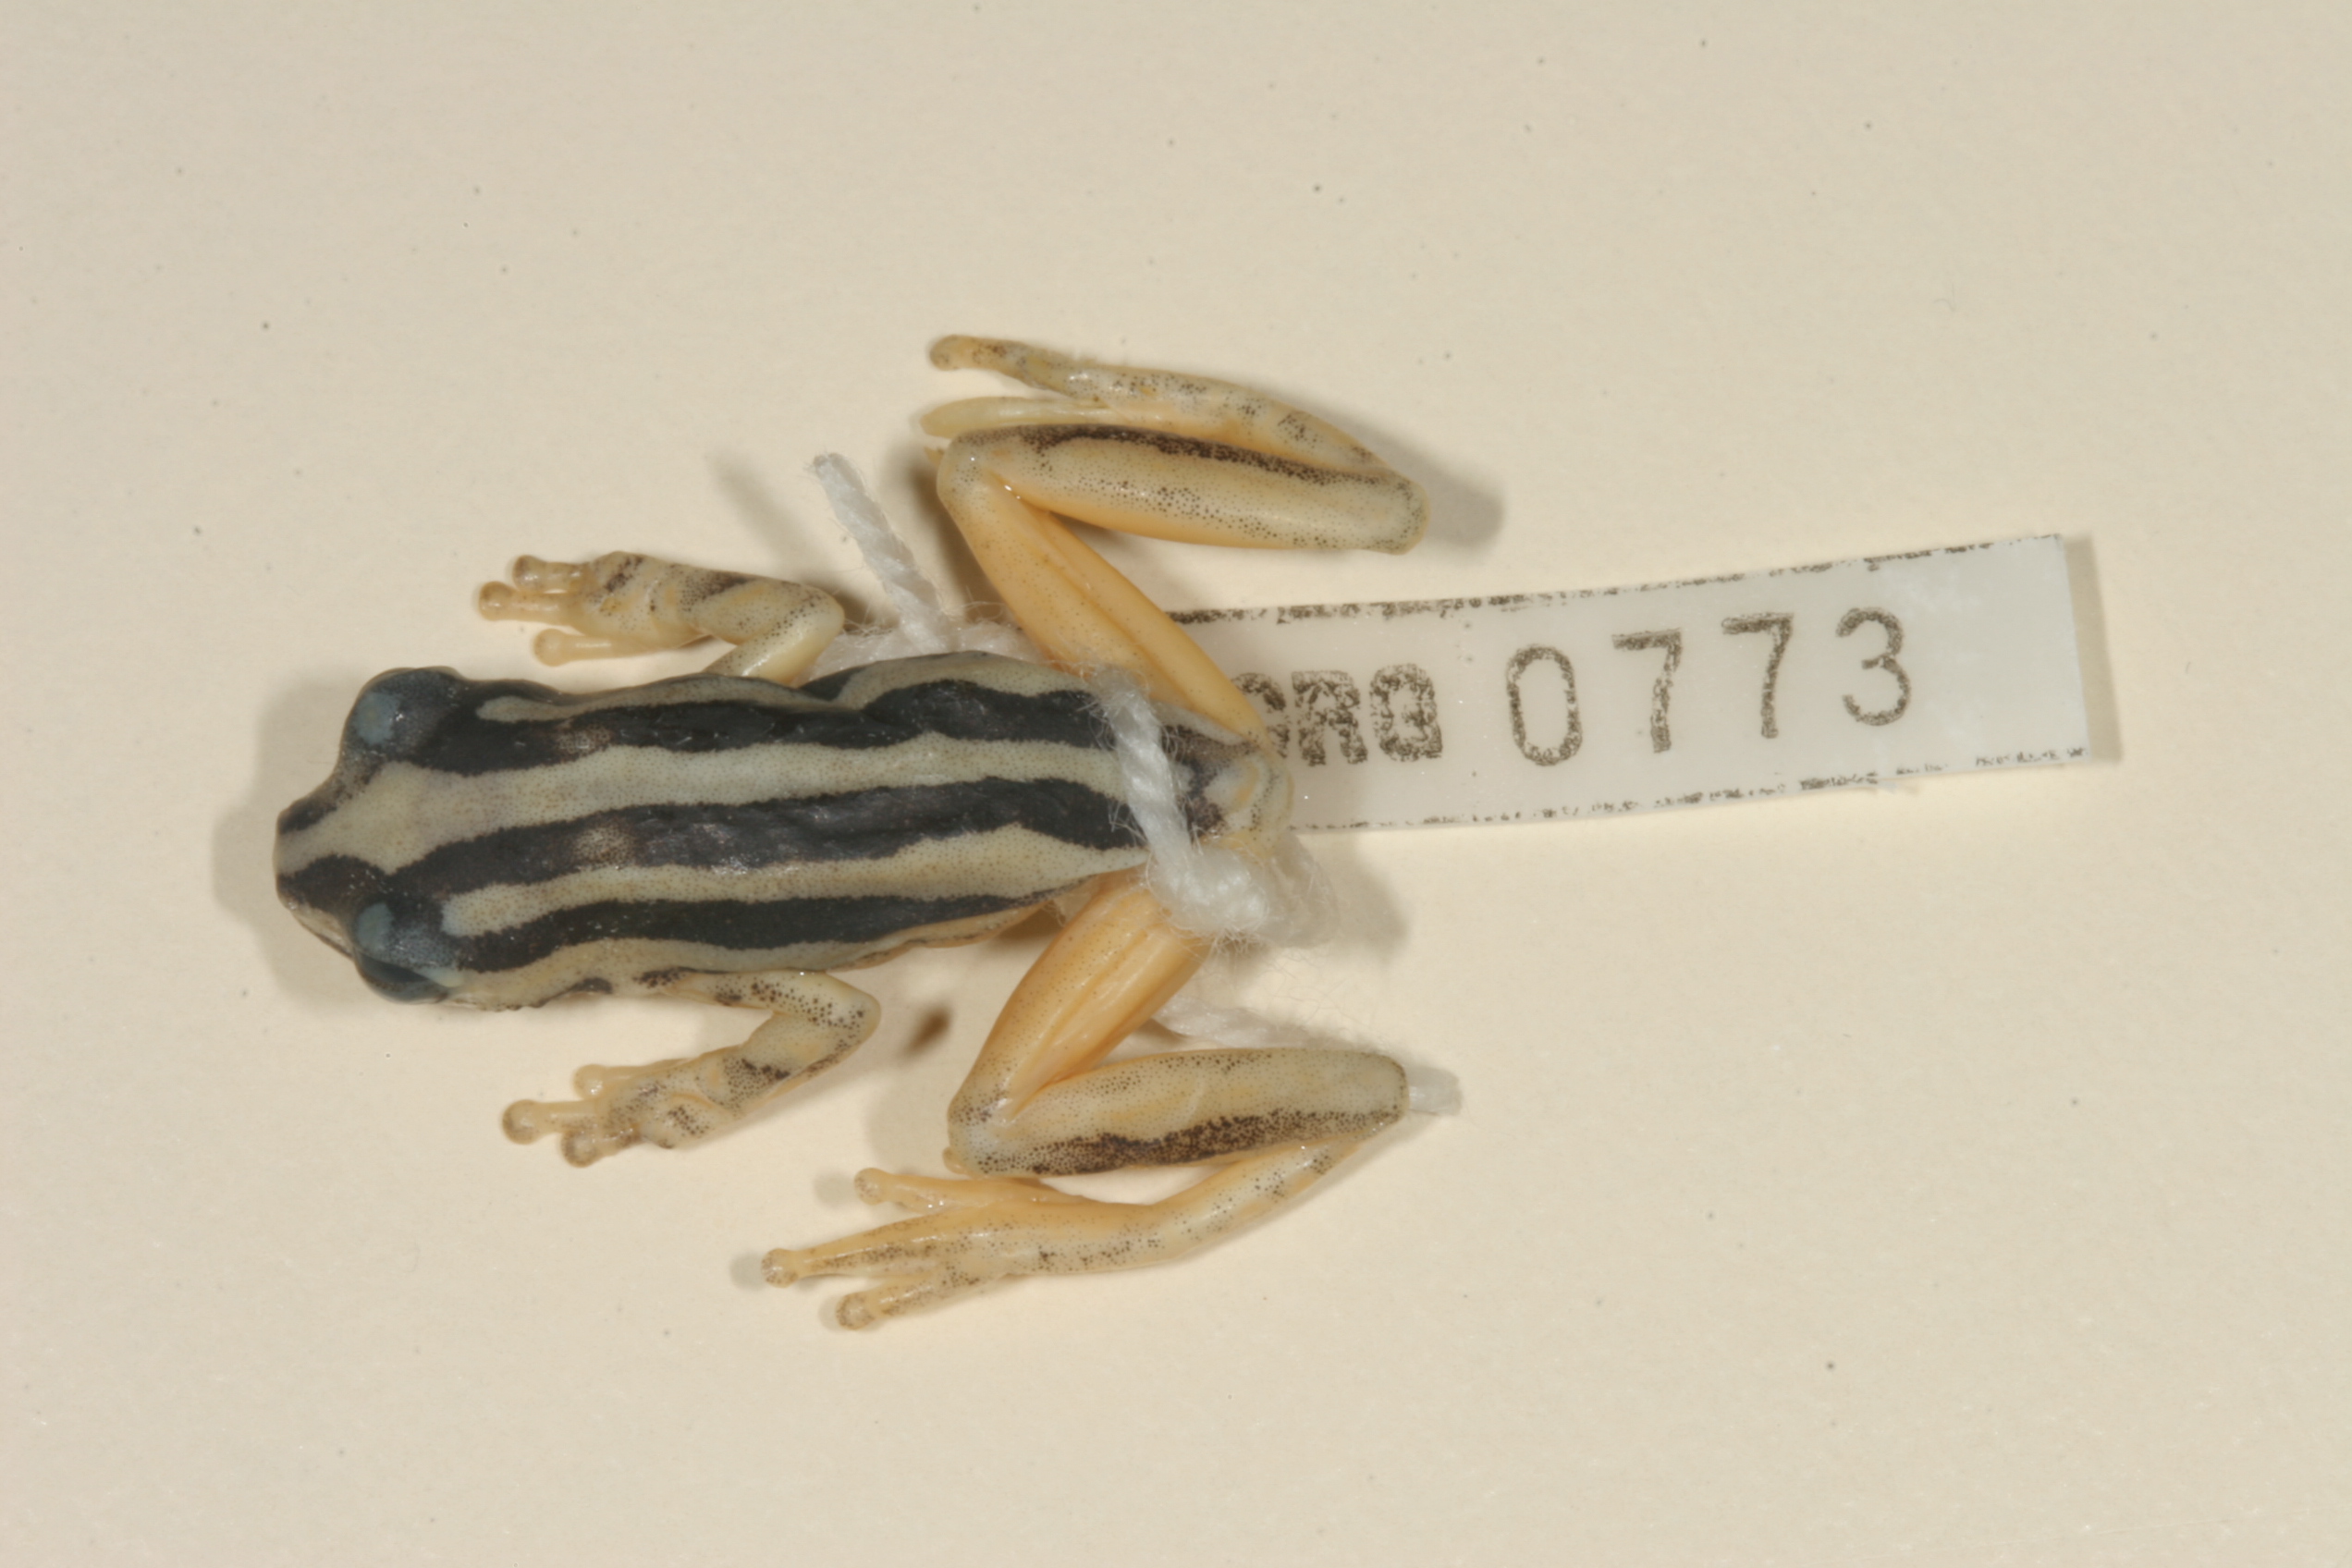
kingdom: Animalia
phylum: Chordata
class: Amphibia
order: Anura
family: Hyperoliidae
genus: Hyperolius
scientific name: Hyperolius marmoratus
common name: Painted reed frog
